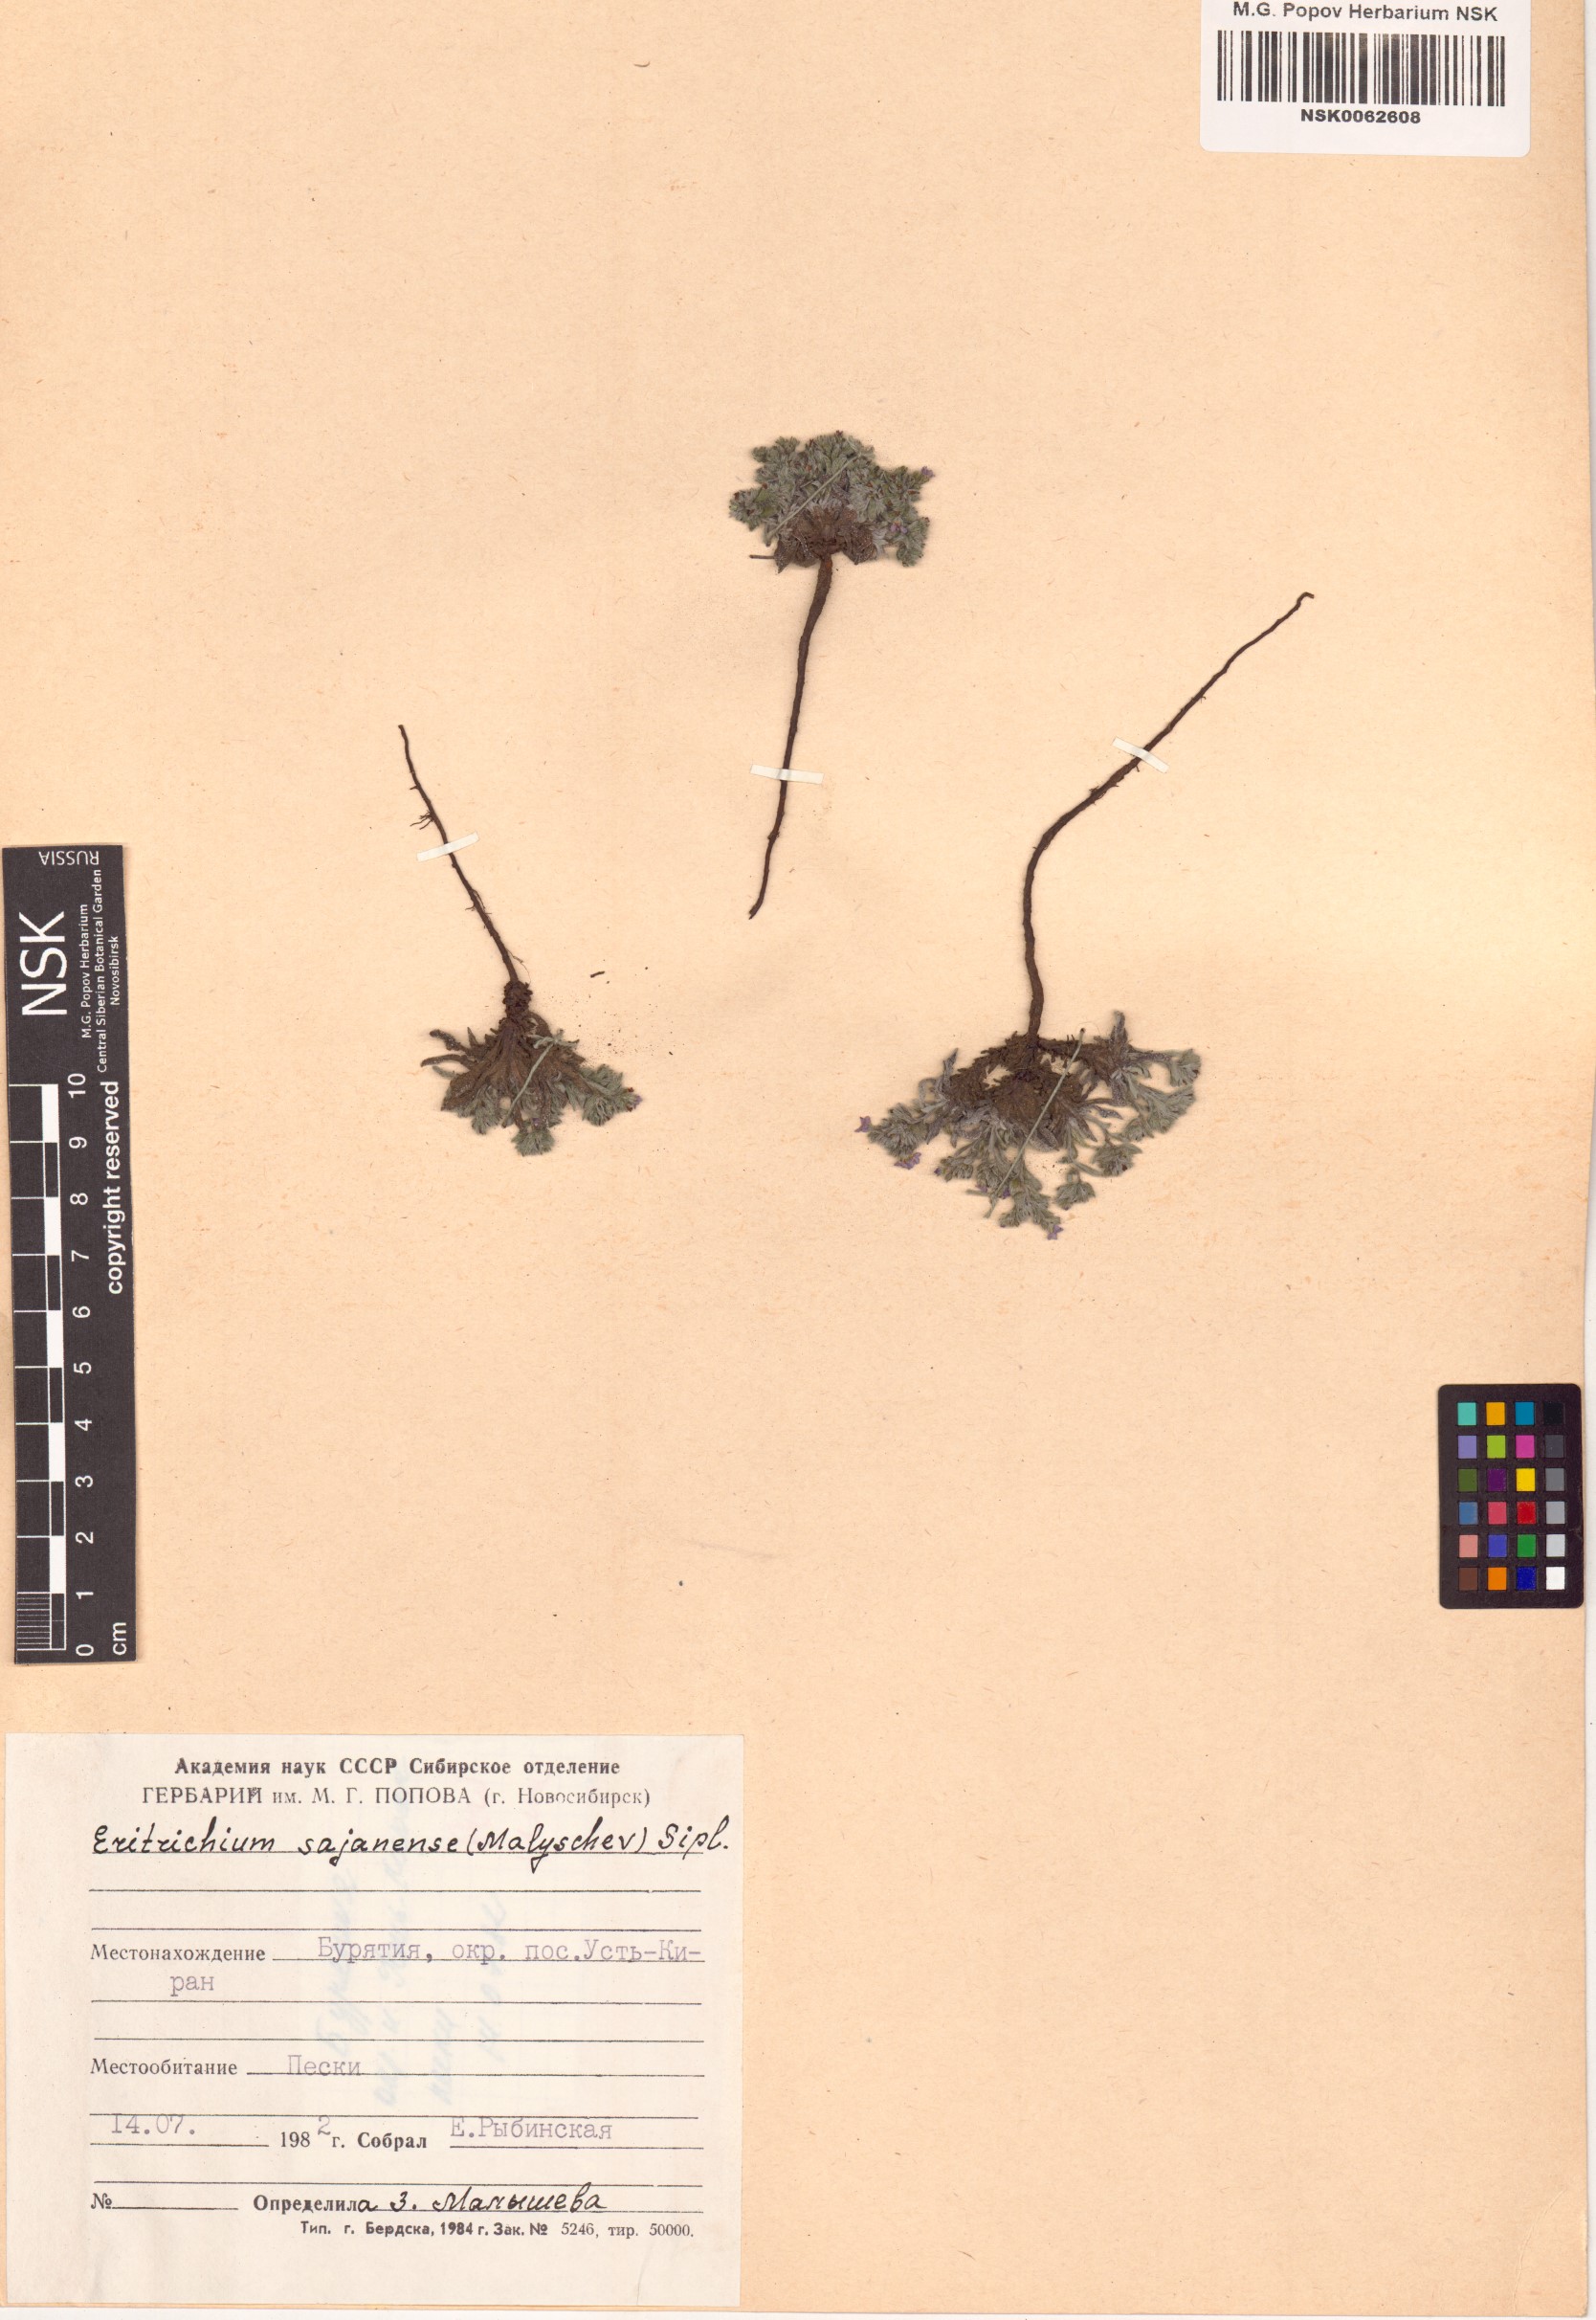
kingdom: Plantae
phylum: Tracheophyta
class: Magnoliopsida
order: Boraginales
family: Boraginaceae
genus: Eritrichium
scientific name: Eritrichium sajanense
